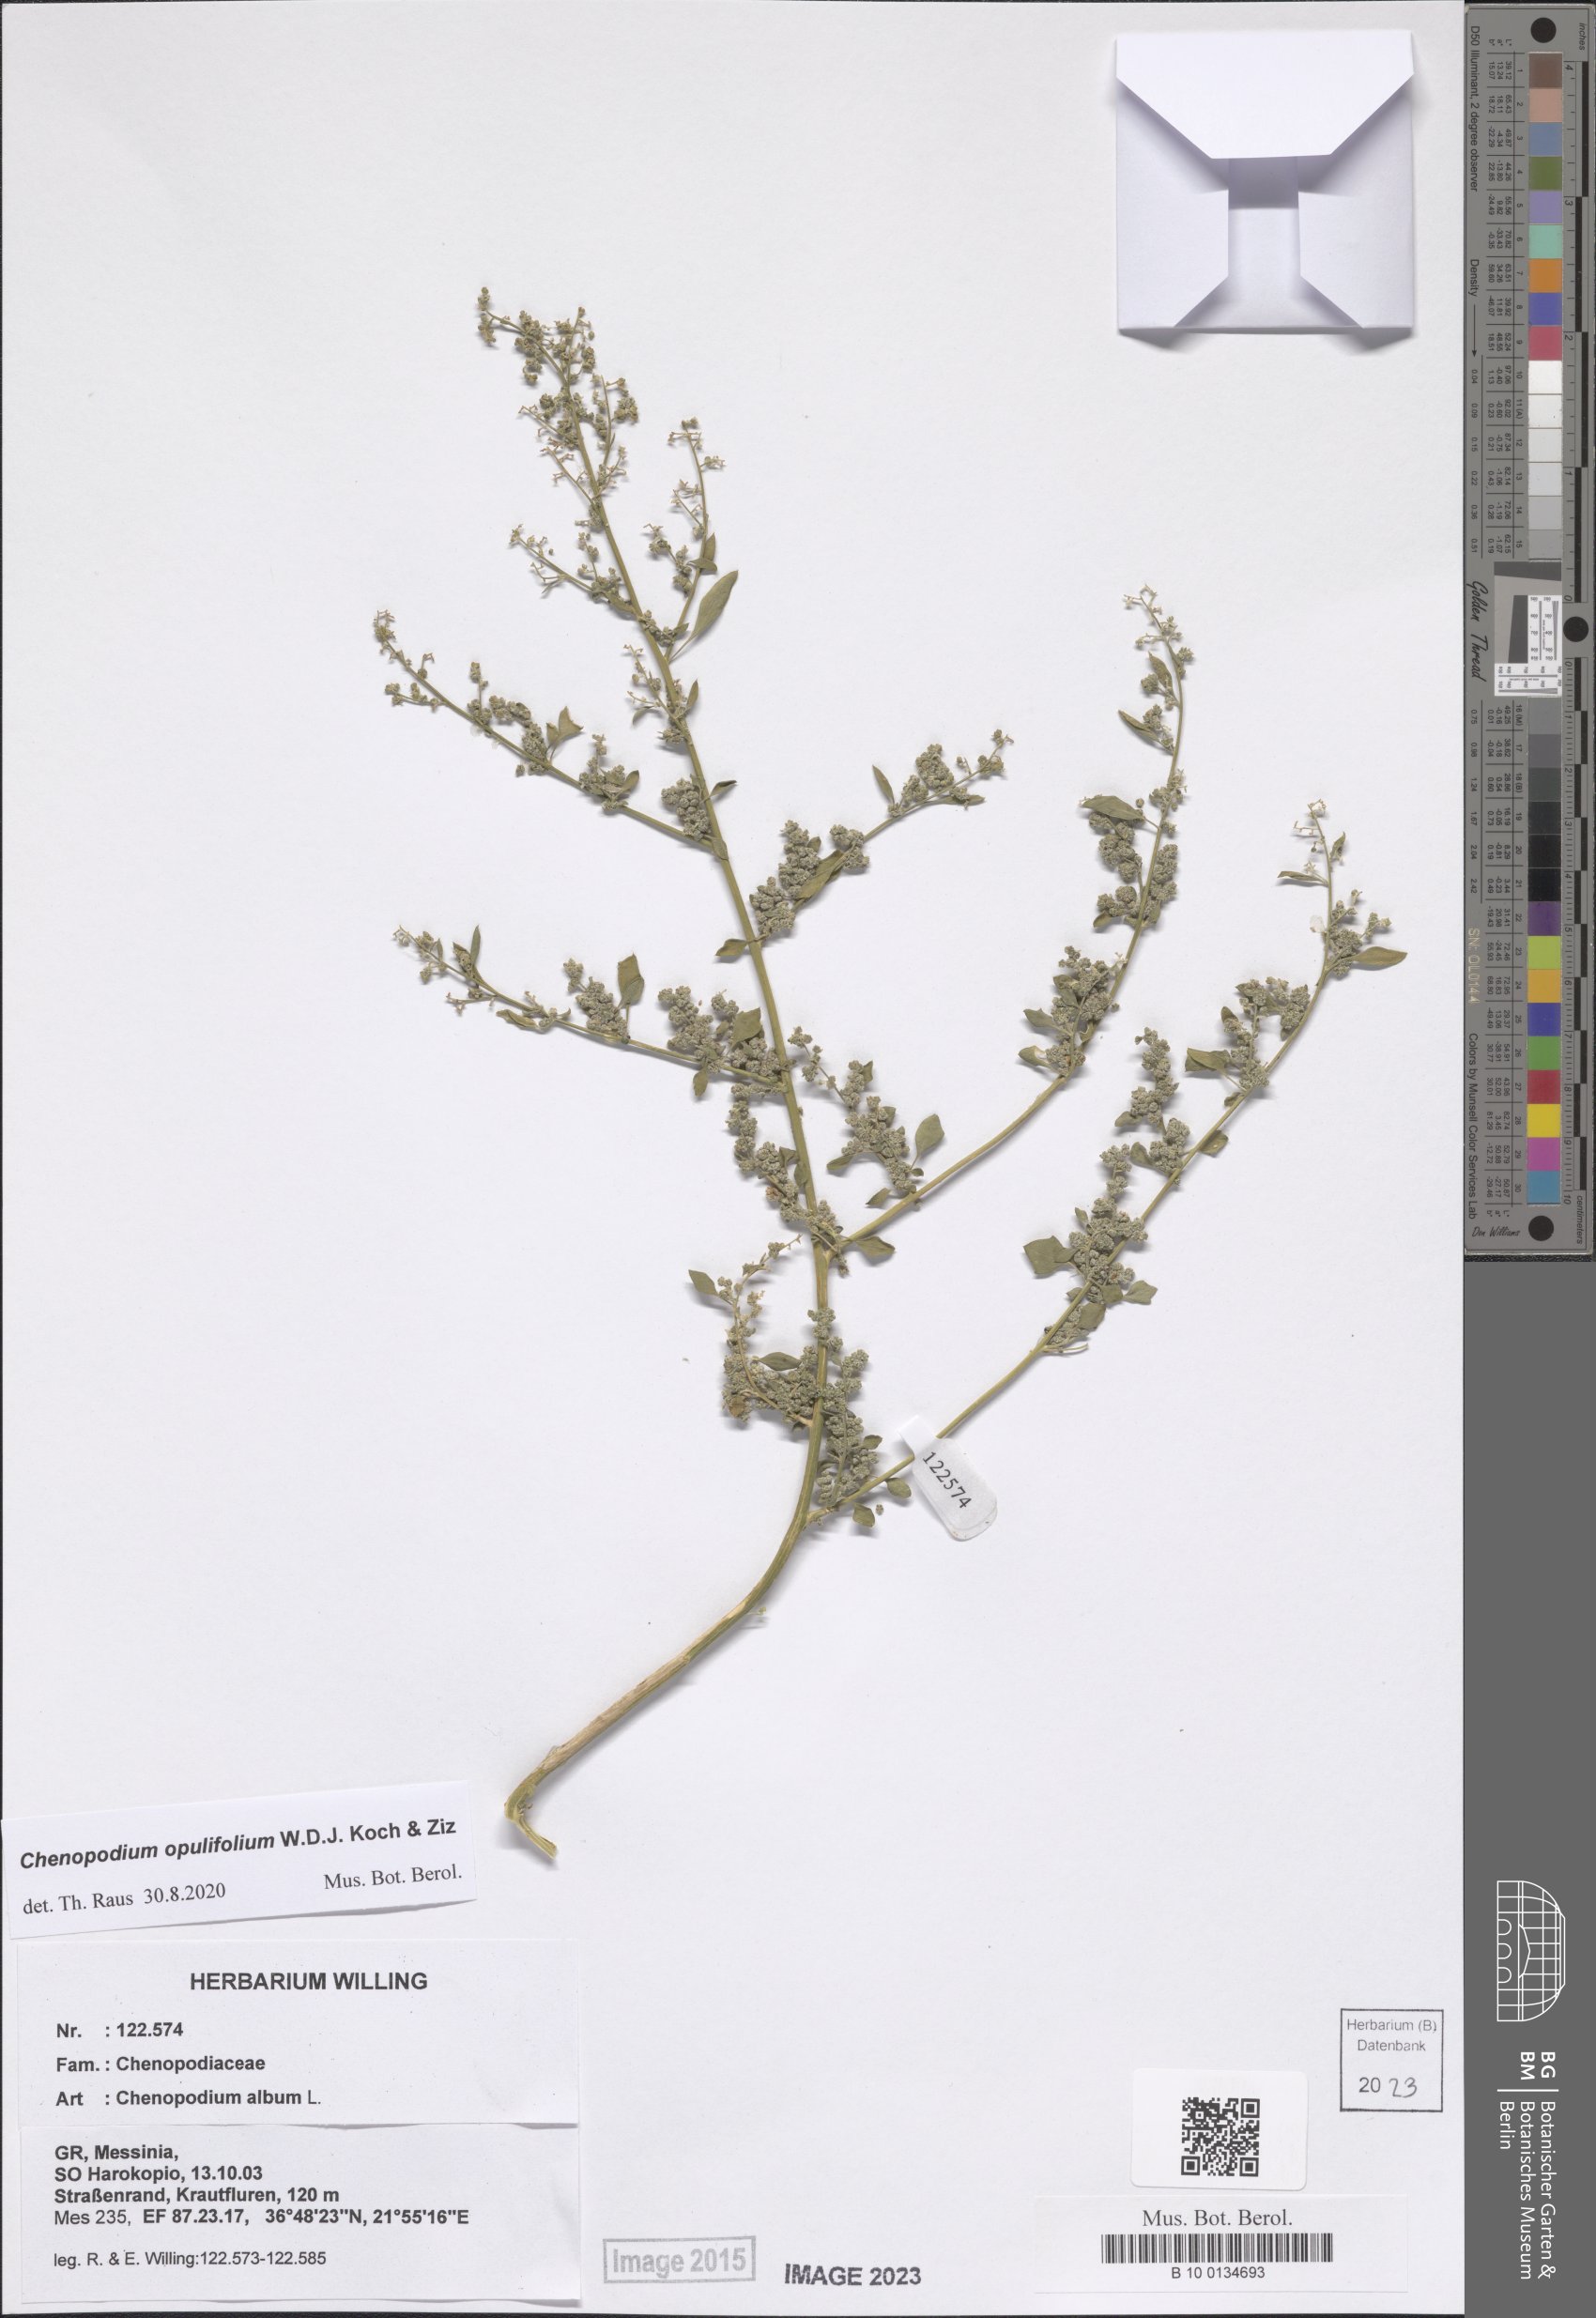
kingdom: Plantae
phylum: Tracheophyta
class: Magnoliopsida
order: Caryophyllales
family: Amaranthaceae
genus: Chenopodium
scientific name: Chenopodium opulifolium
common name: Grey goosefoot
